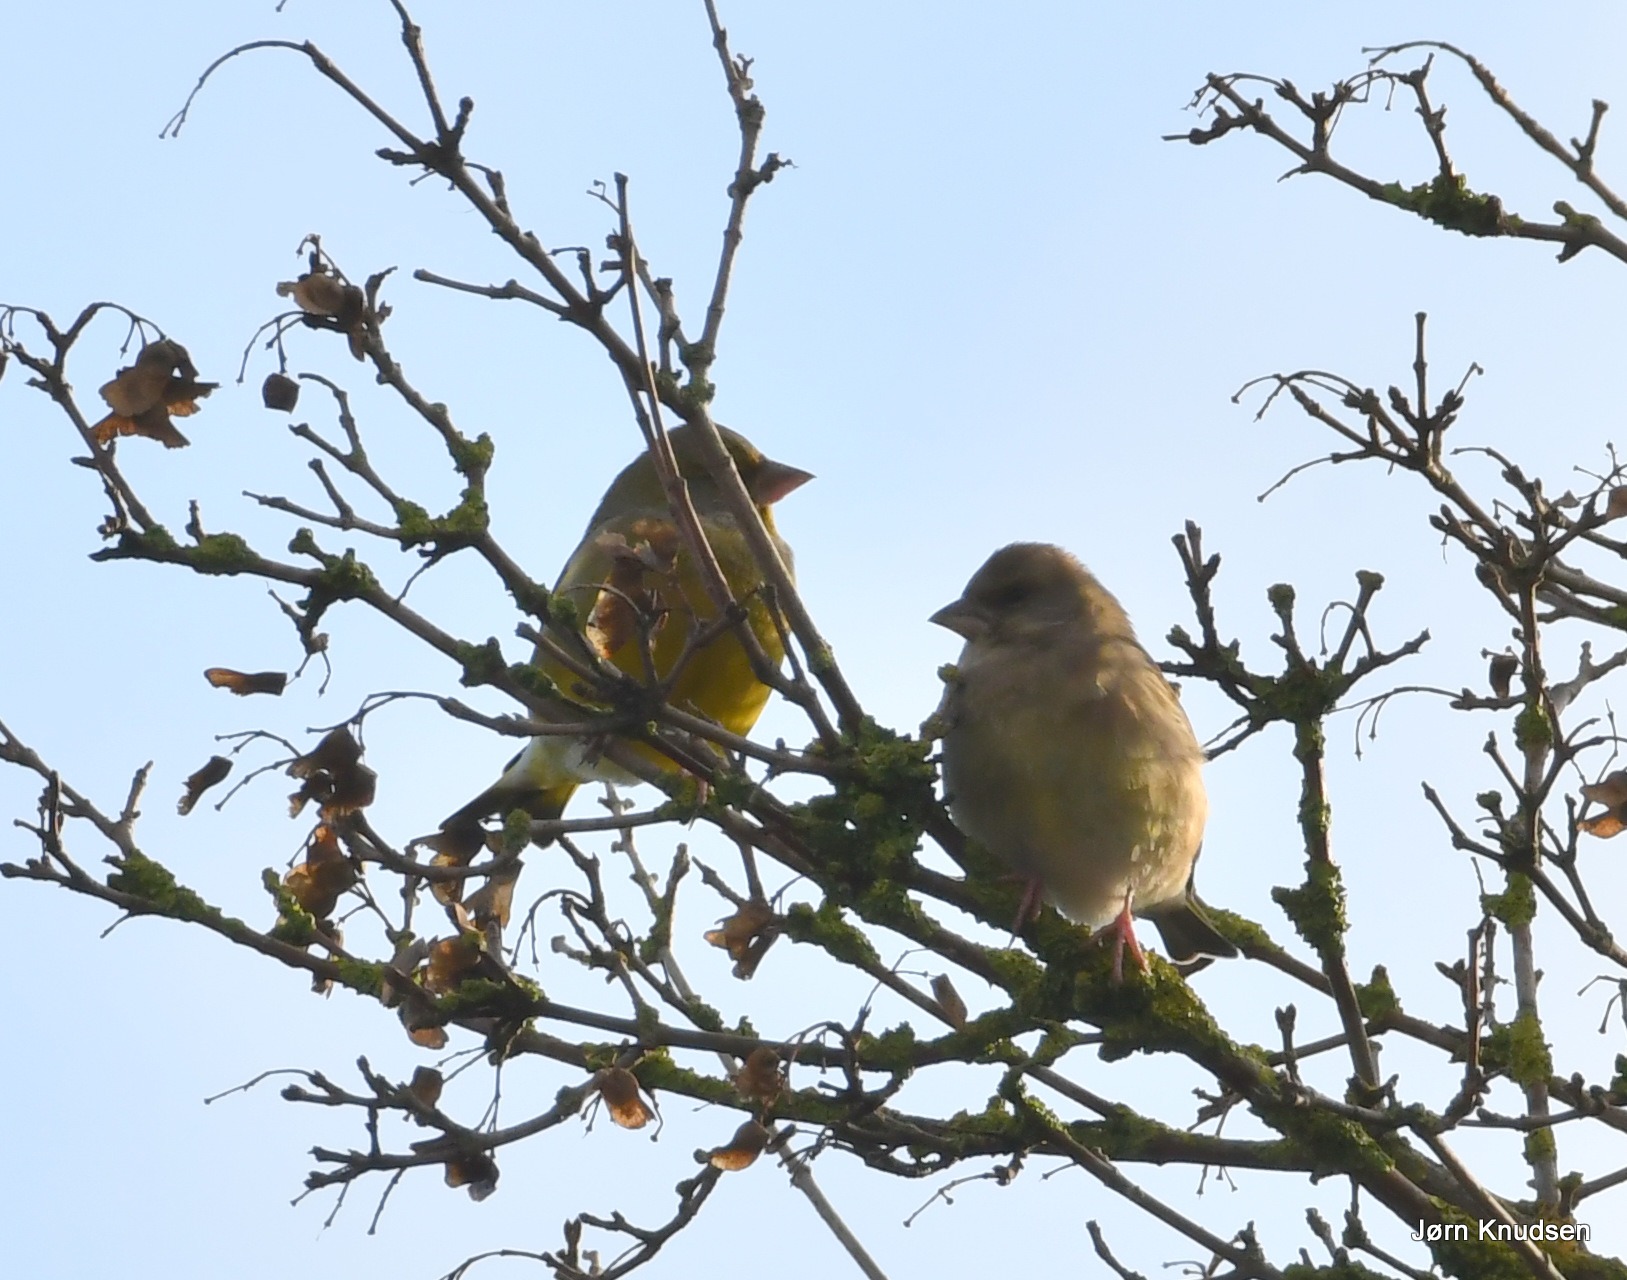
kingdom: Plantae
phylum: Tracheophyta
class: Liliopsida
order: Poales
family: Poaceae
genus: Chloris
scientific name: Chloris chloris
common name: Grønirisk
